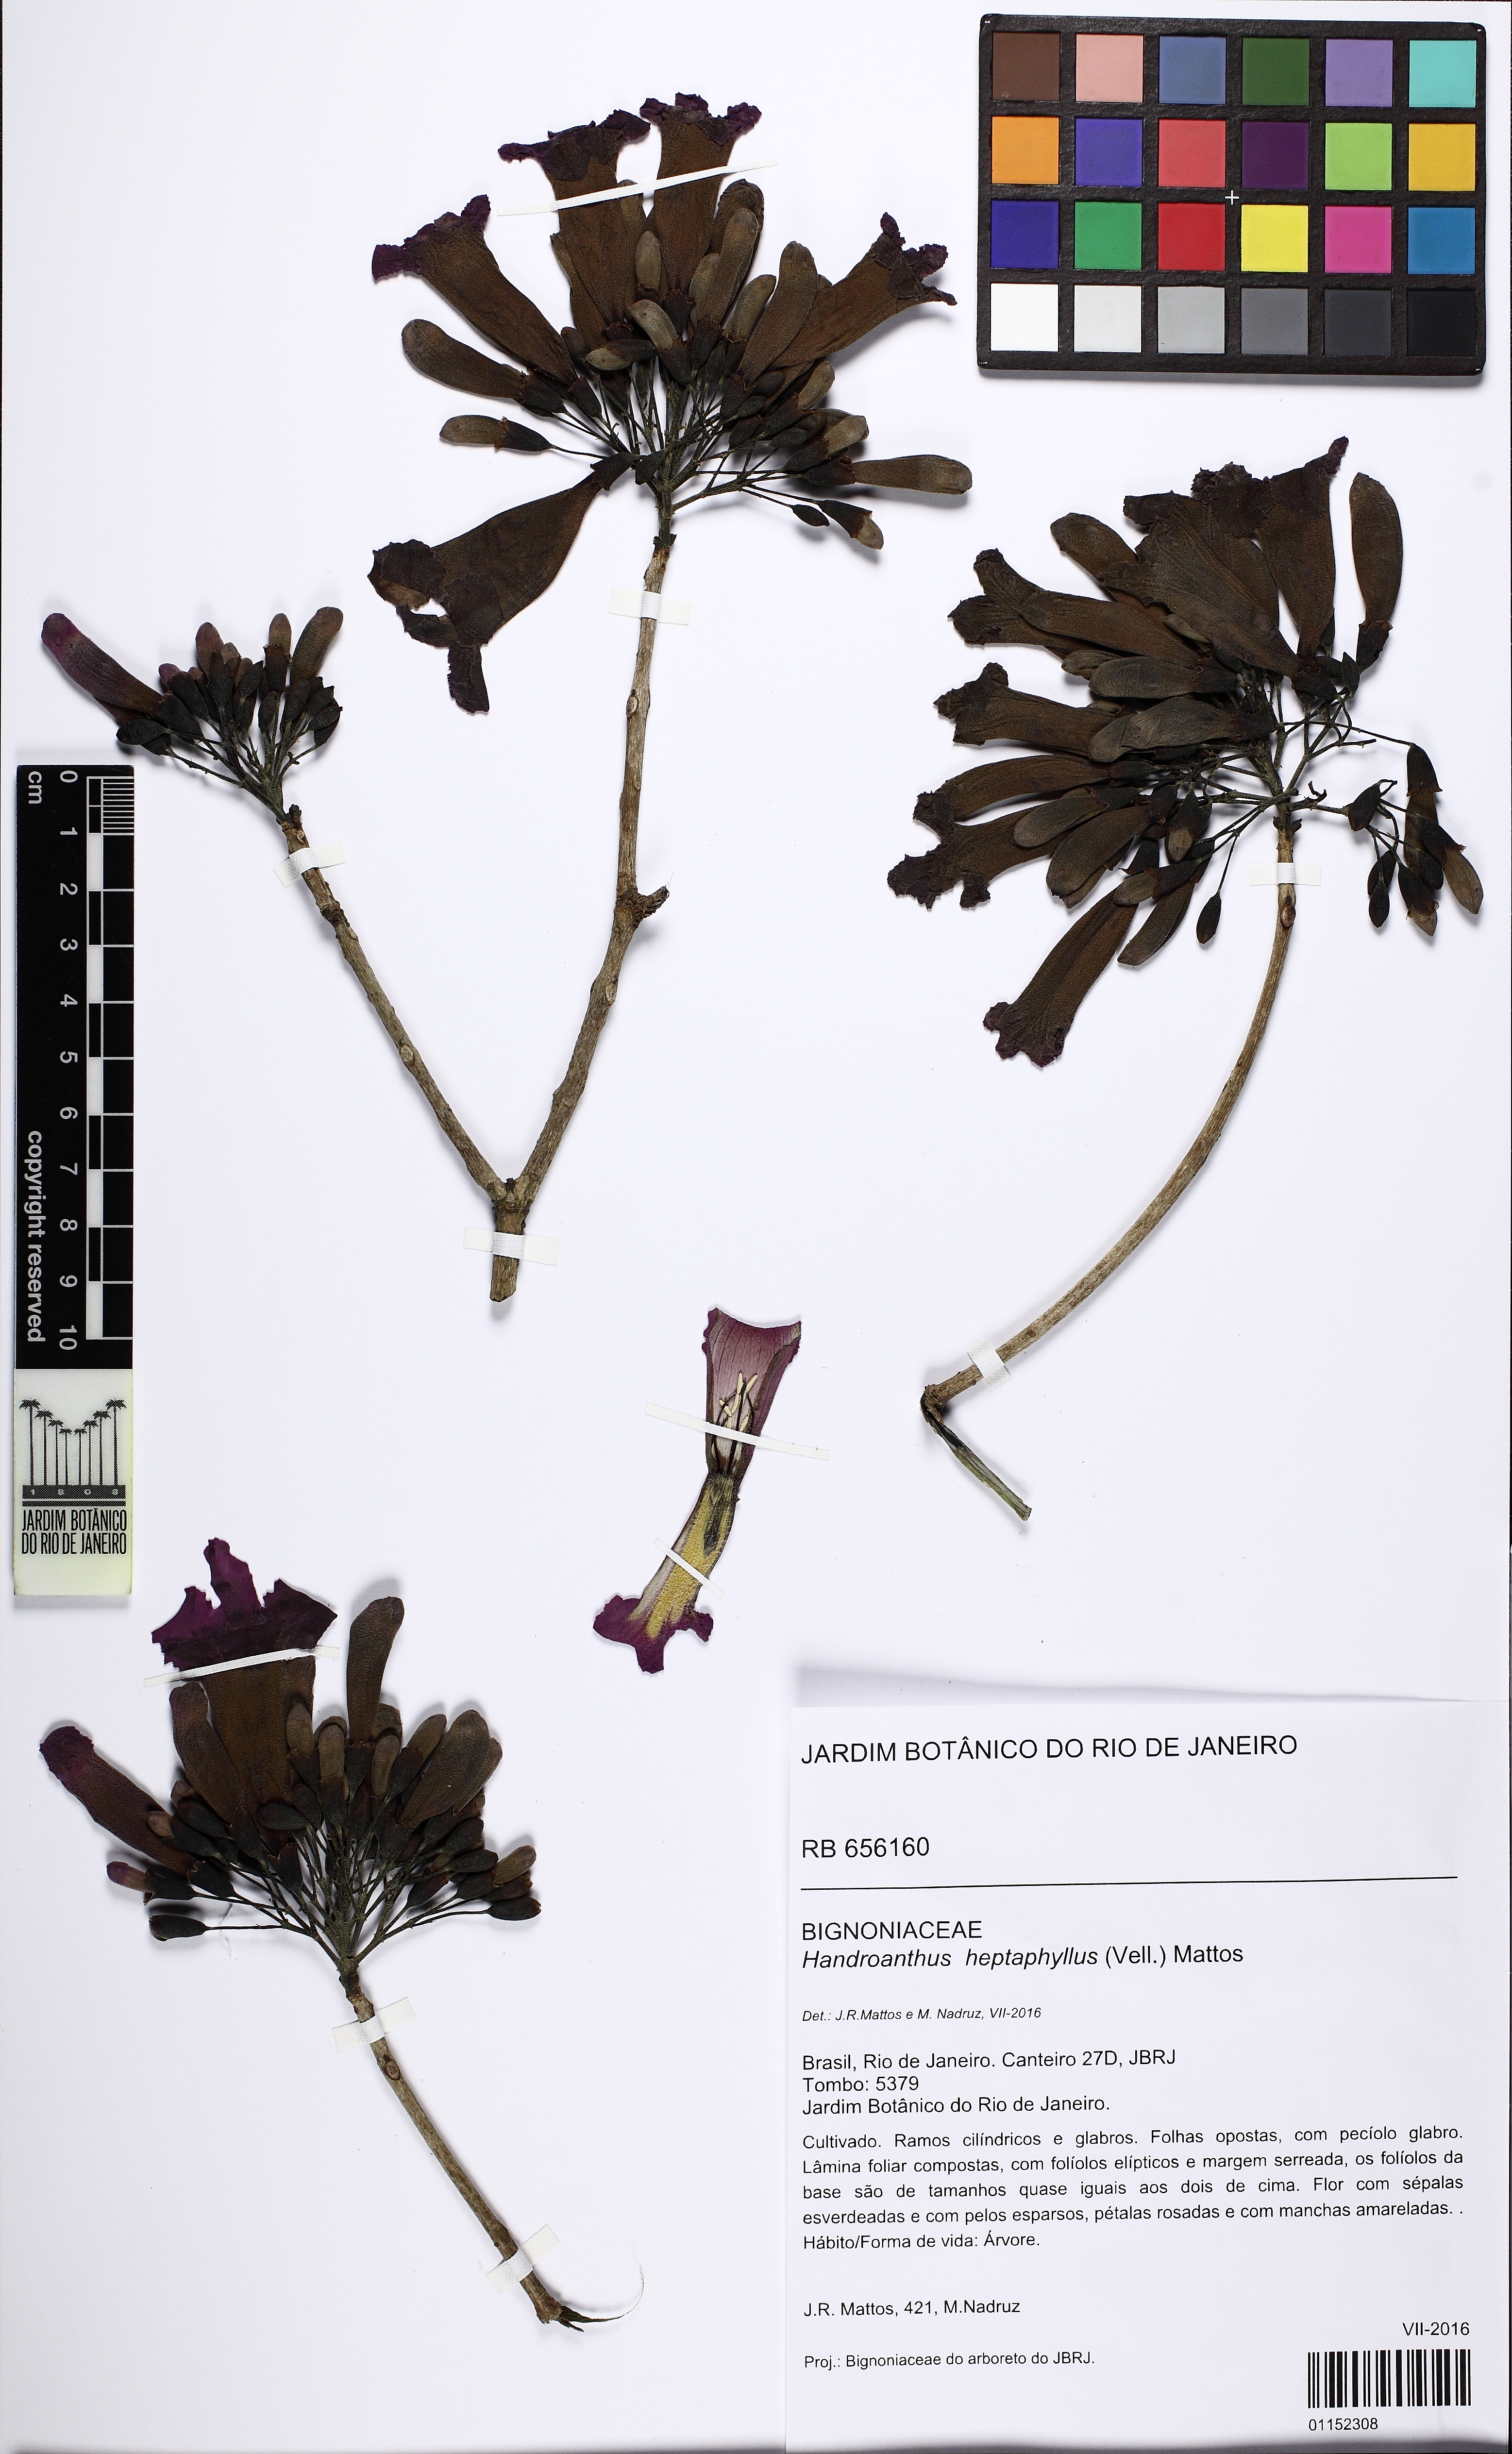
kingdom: Plantae
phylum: Tracheophyta
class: Magnoliopsida
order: Lamiales
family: Bignoniaceae
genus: Handroanthus
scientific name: Handroanthus heptaphyllus
